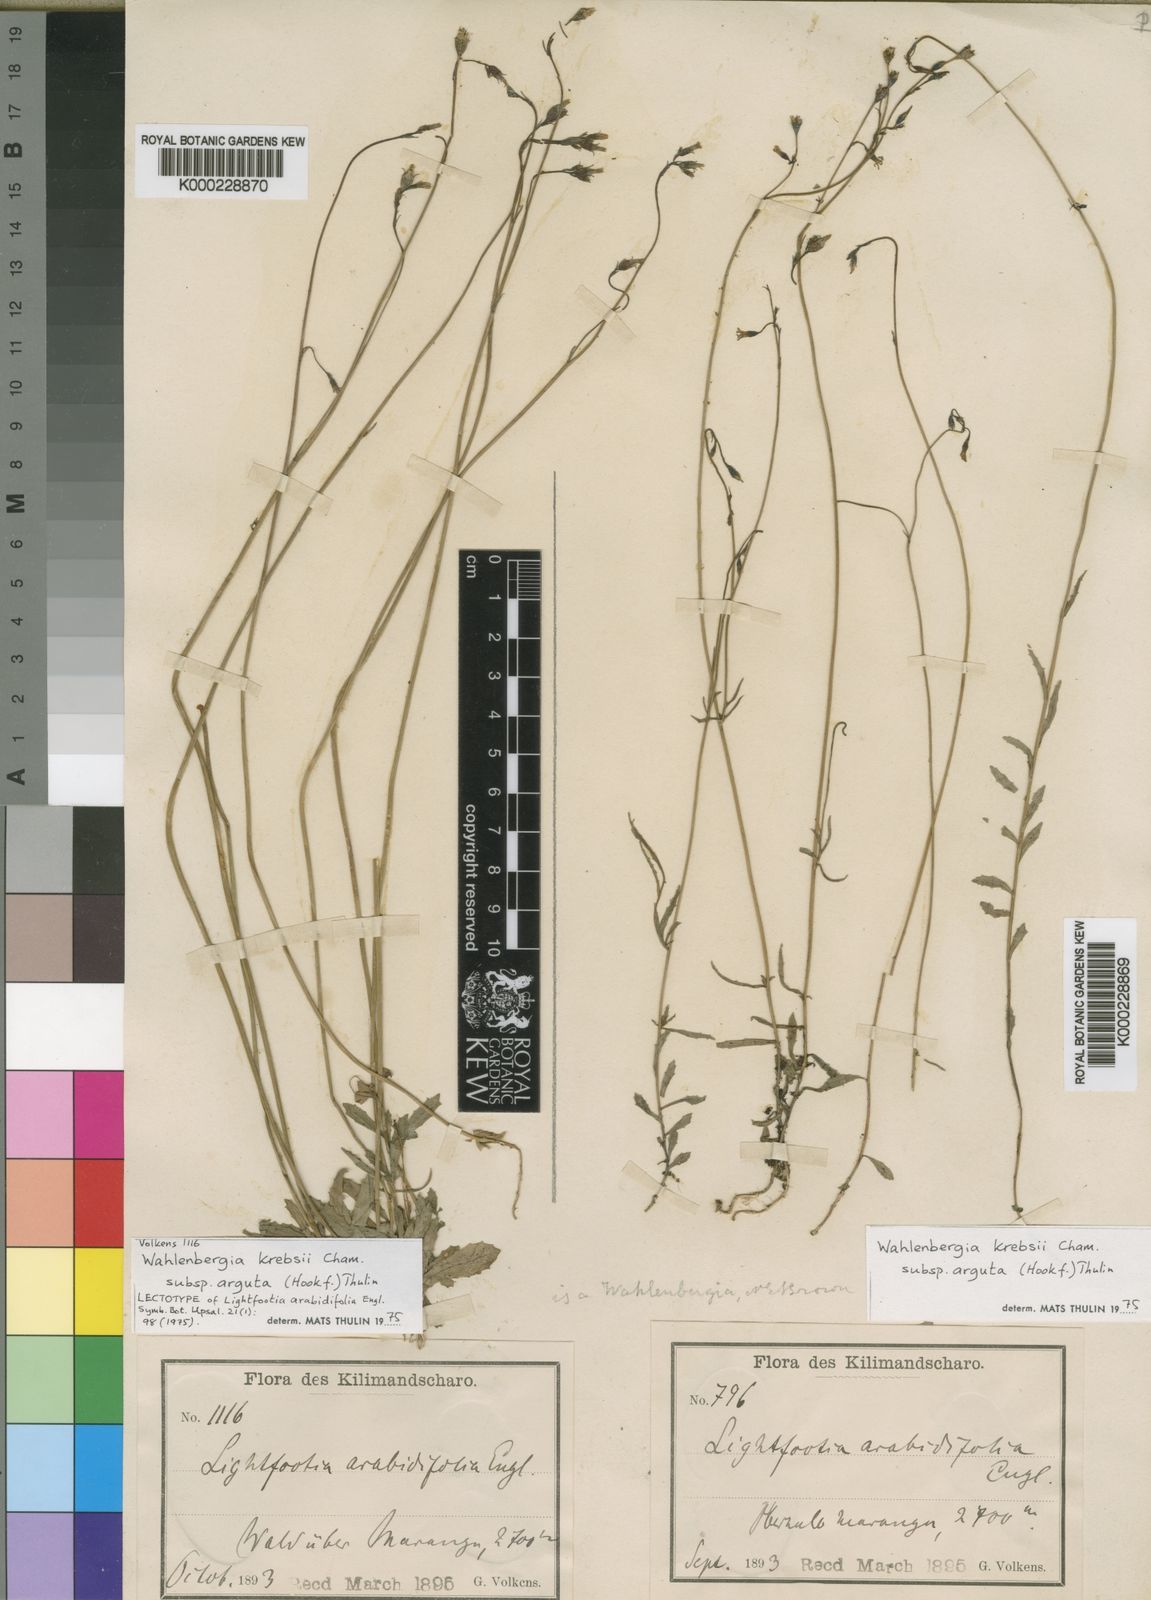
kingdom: Plantae
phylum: Tracheophyta
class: Magnoliopsida
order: Asterales
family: Campanulaceae
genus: Wahlenbergia
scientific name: Wahlenbergia krebsii
